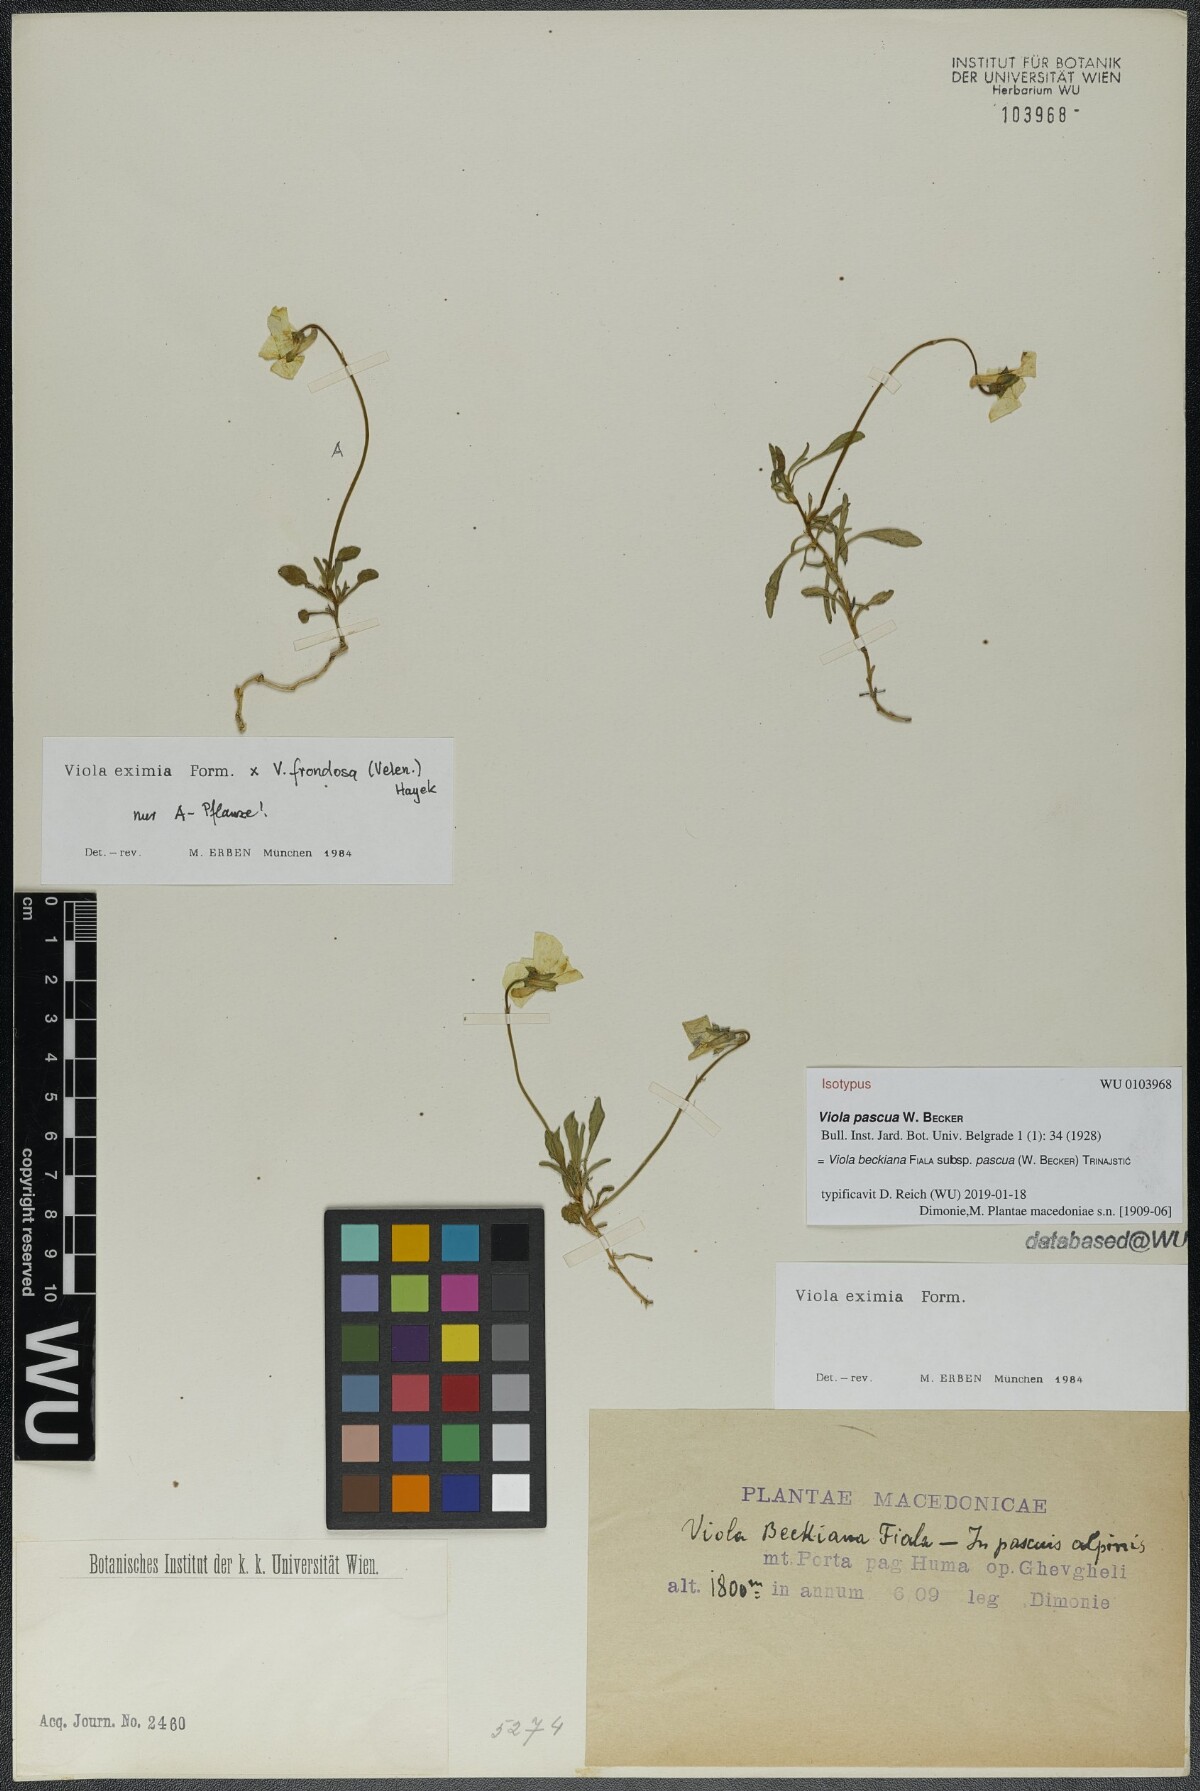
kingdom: Plantae
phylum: Tracheophyta
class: Magnoliopsida
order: Malpighiales
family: Violaceae
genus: Viola
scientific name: Viola eximia
